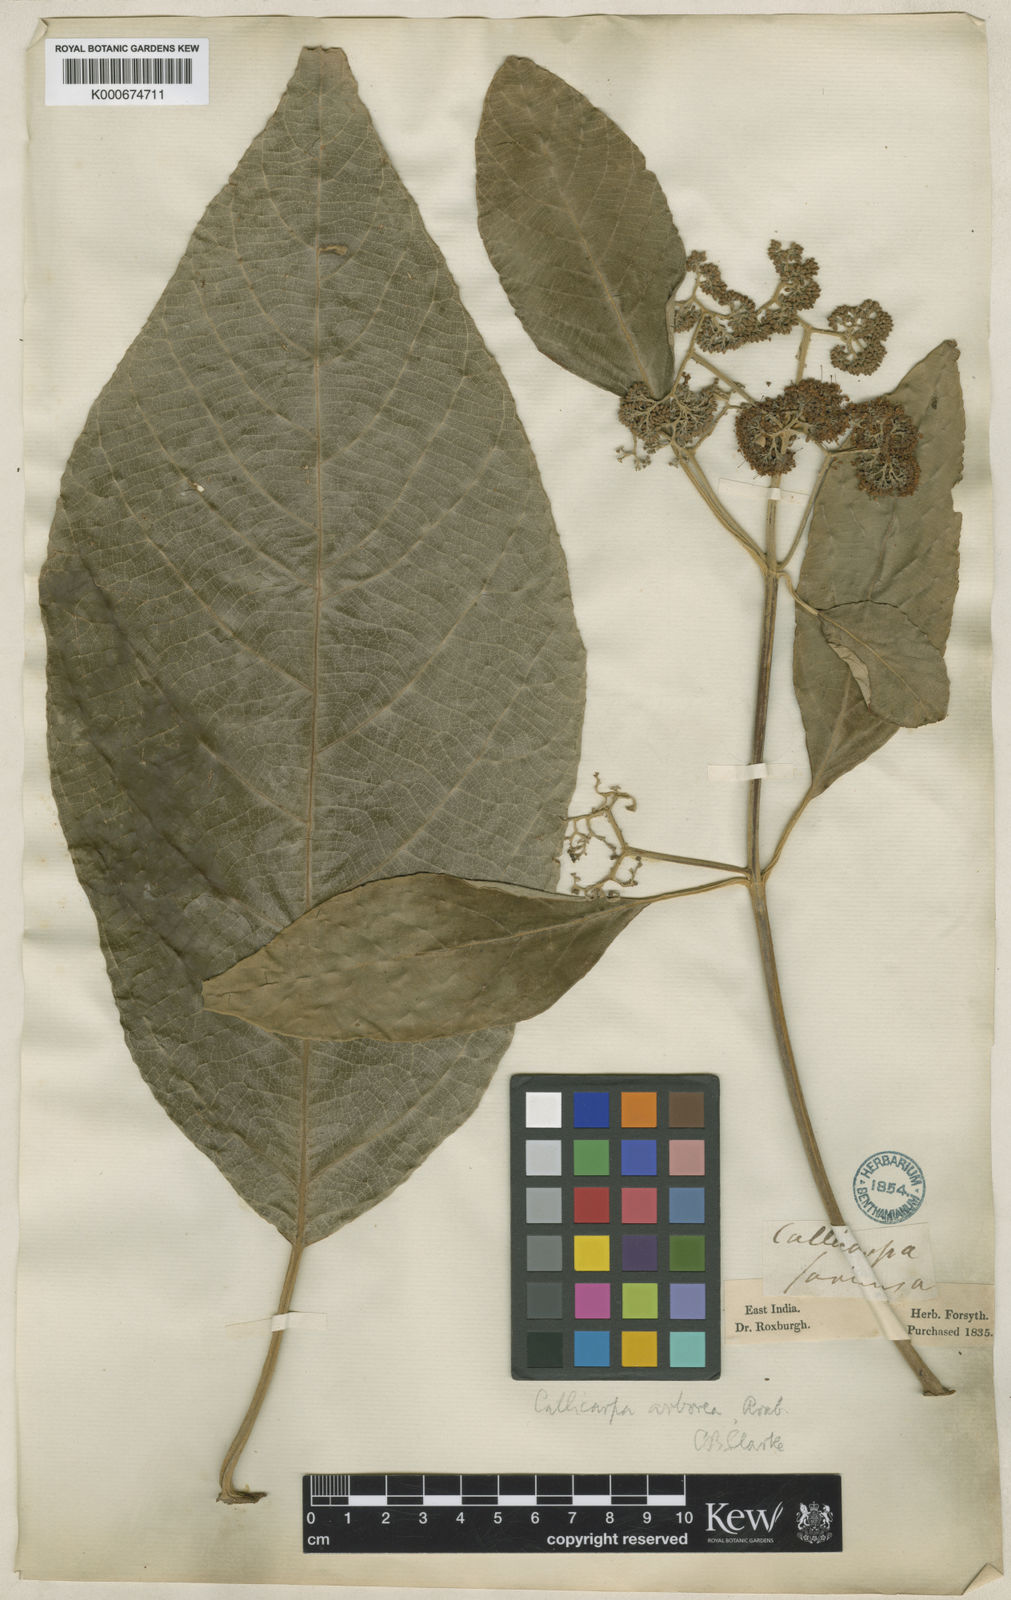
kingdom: Plantae
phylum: Tracheophyta
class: Magnoliopsida
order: Lamiales
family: Lamiaceae
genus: Callicarpa
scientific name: Callicarpa arborea
